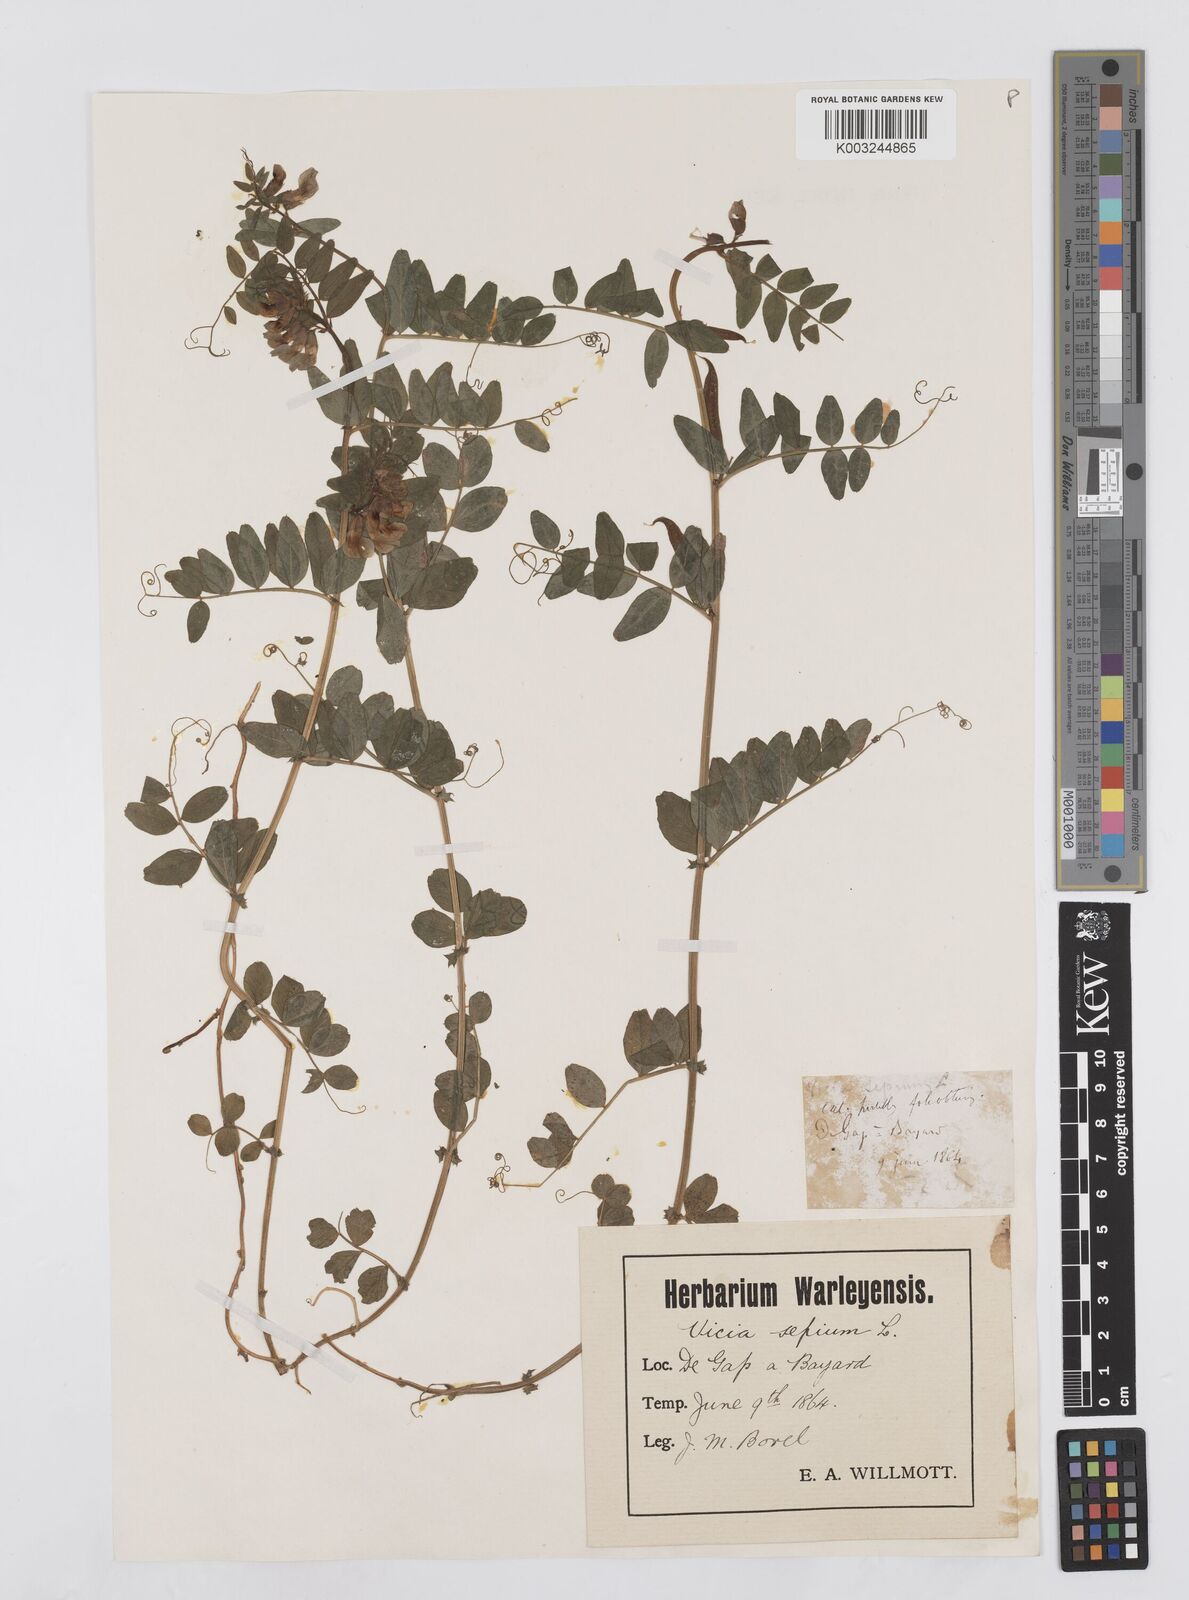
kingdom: Plantae
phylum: Tracheophyta
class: Magnoliopsida
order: Fabales
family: Fabaceae
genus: Vicia
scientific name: Vicia sepium
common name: Bush vetch
